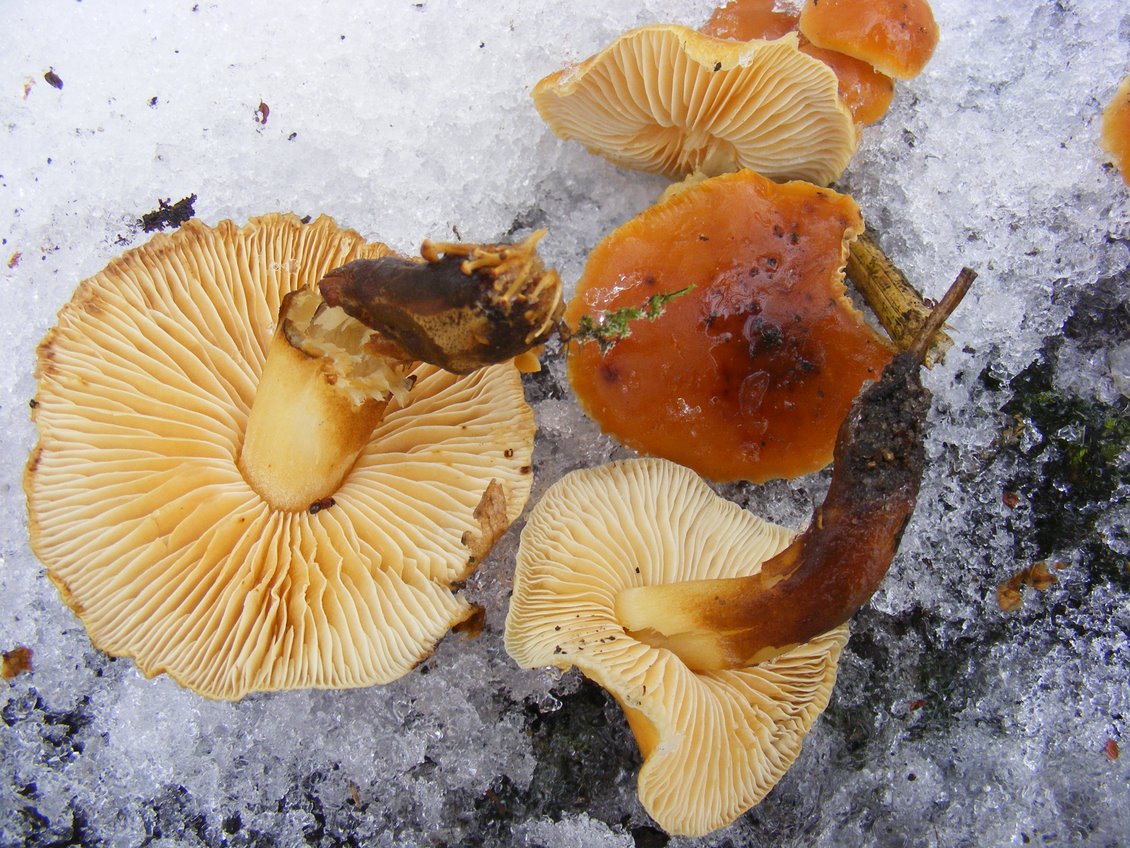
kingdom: Fungi
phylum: Basidiomycota
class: Agaricomycetes
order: Agaricales
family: Physalacriaceae
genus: Flammulina
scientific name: Flammulina velutipes
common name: gul fløjlsfod
